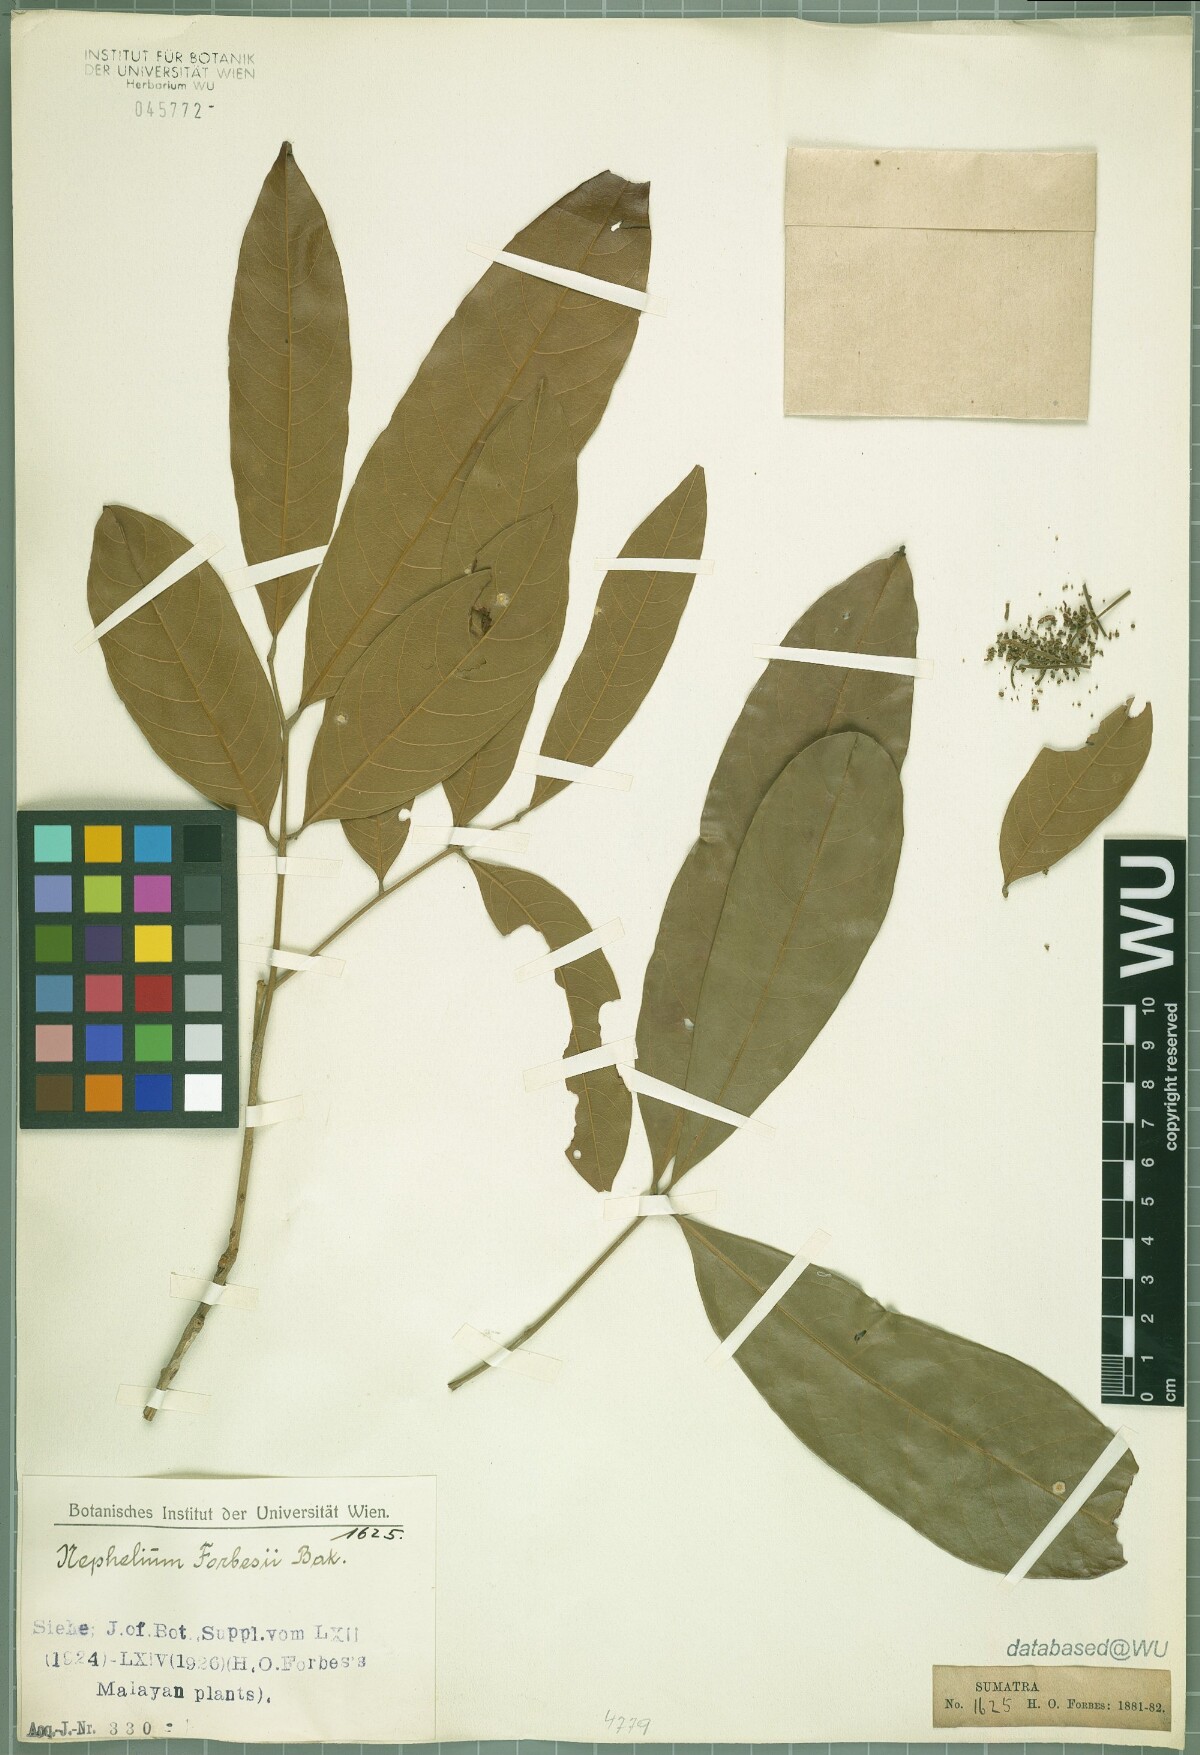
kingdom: Plantae
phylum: Tracheophyta
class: Magnoliopsida
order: Sapindales
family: Sapindaceae
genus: Paranephelium
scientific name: Paranephelium xestophyllum
